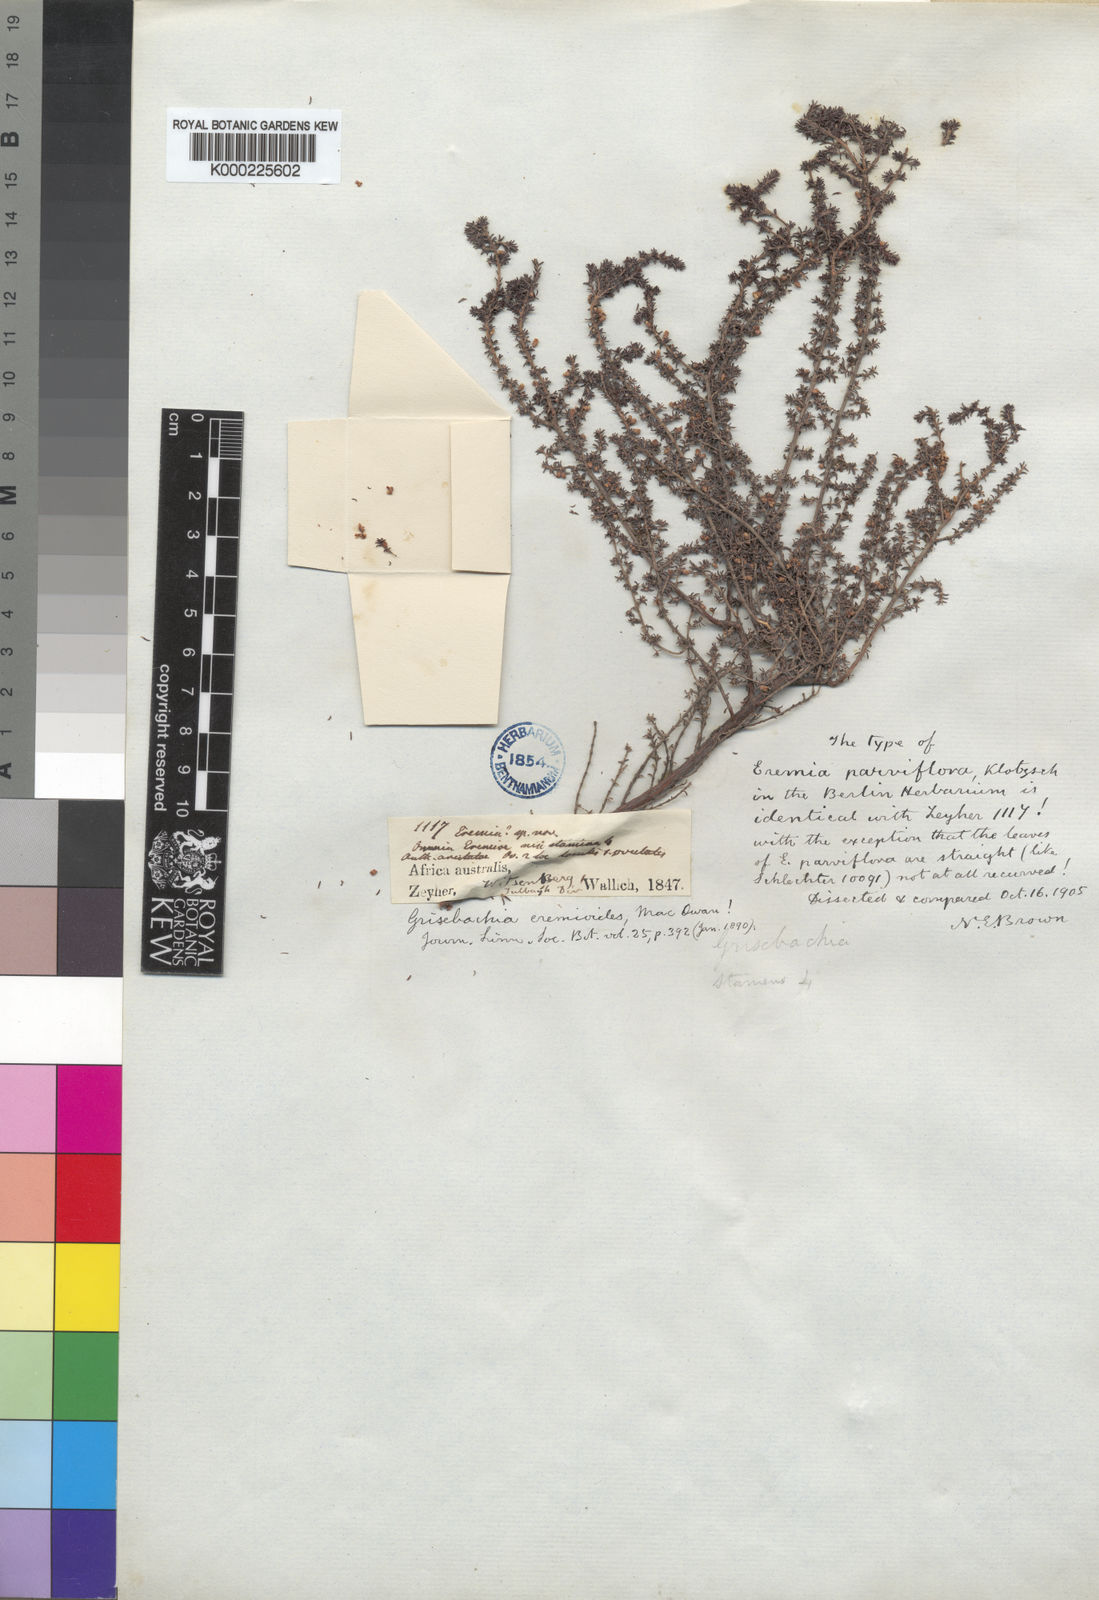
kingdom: Plantae
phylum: Tracheophyta
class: Magnoliopsida
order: Ericales
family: Ericaceae
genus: Erica
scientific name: Erica
